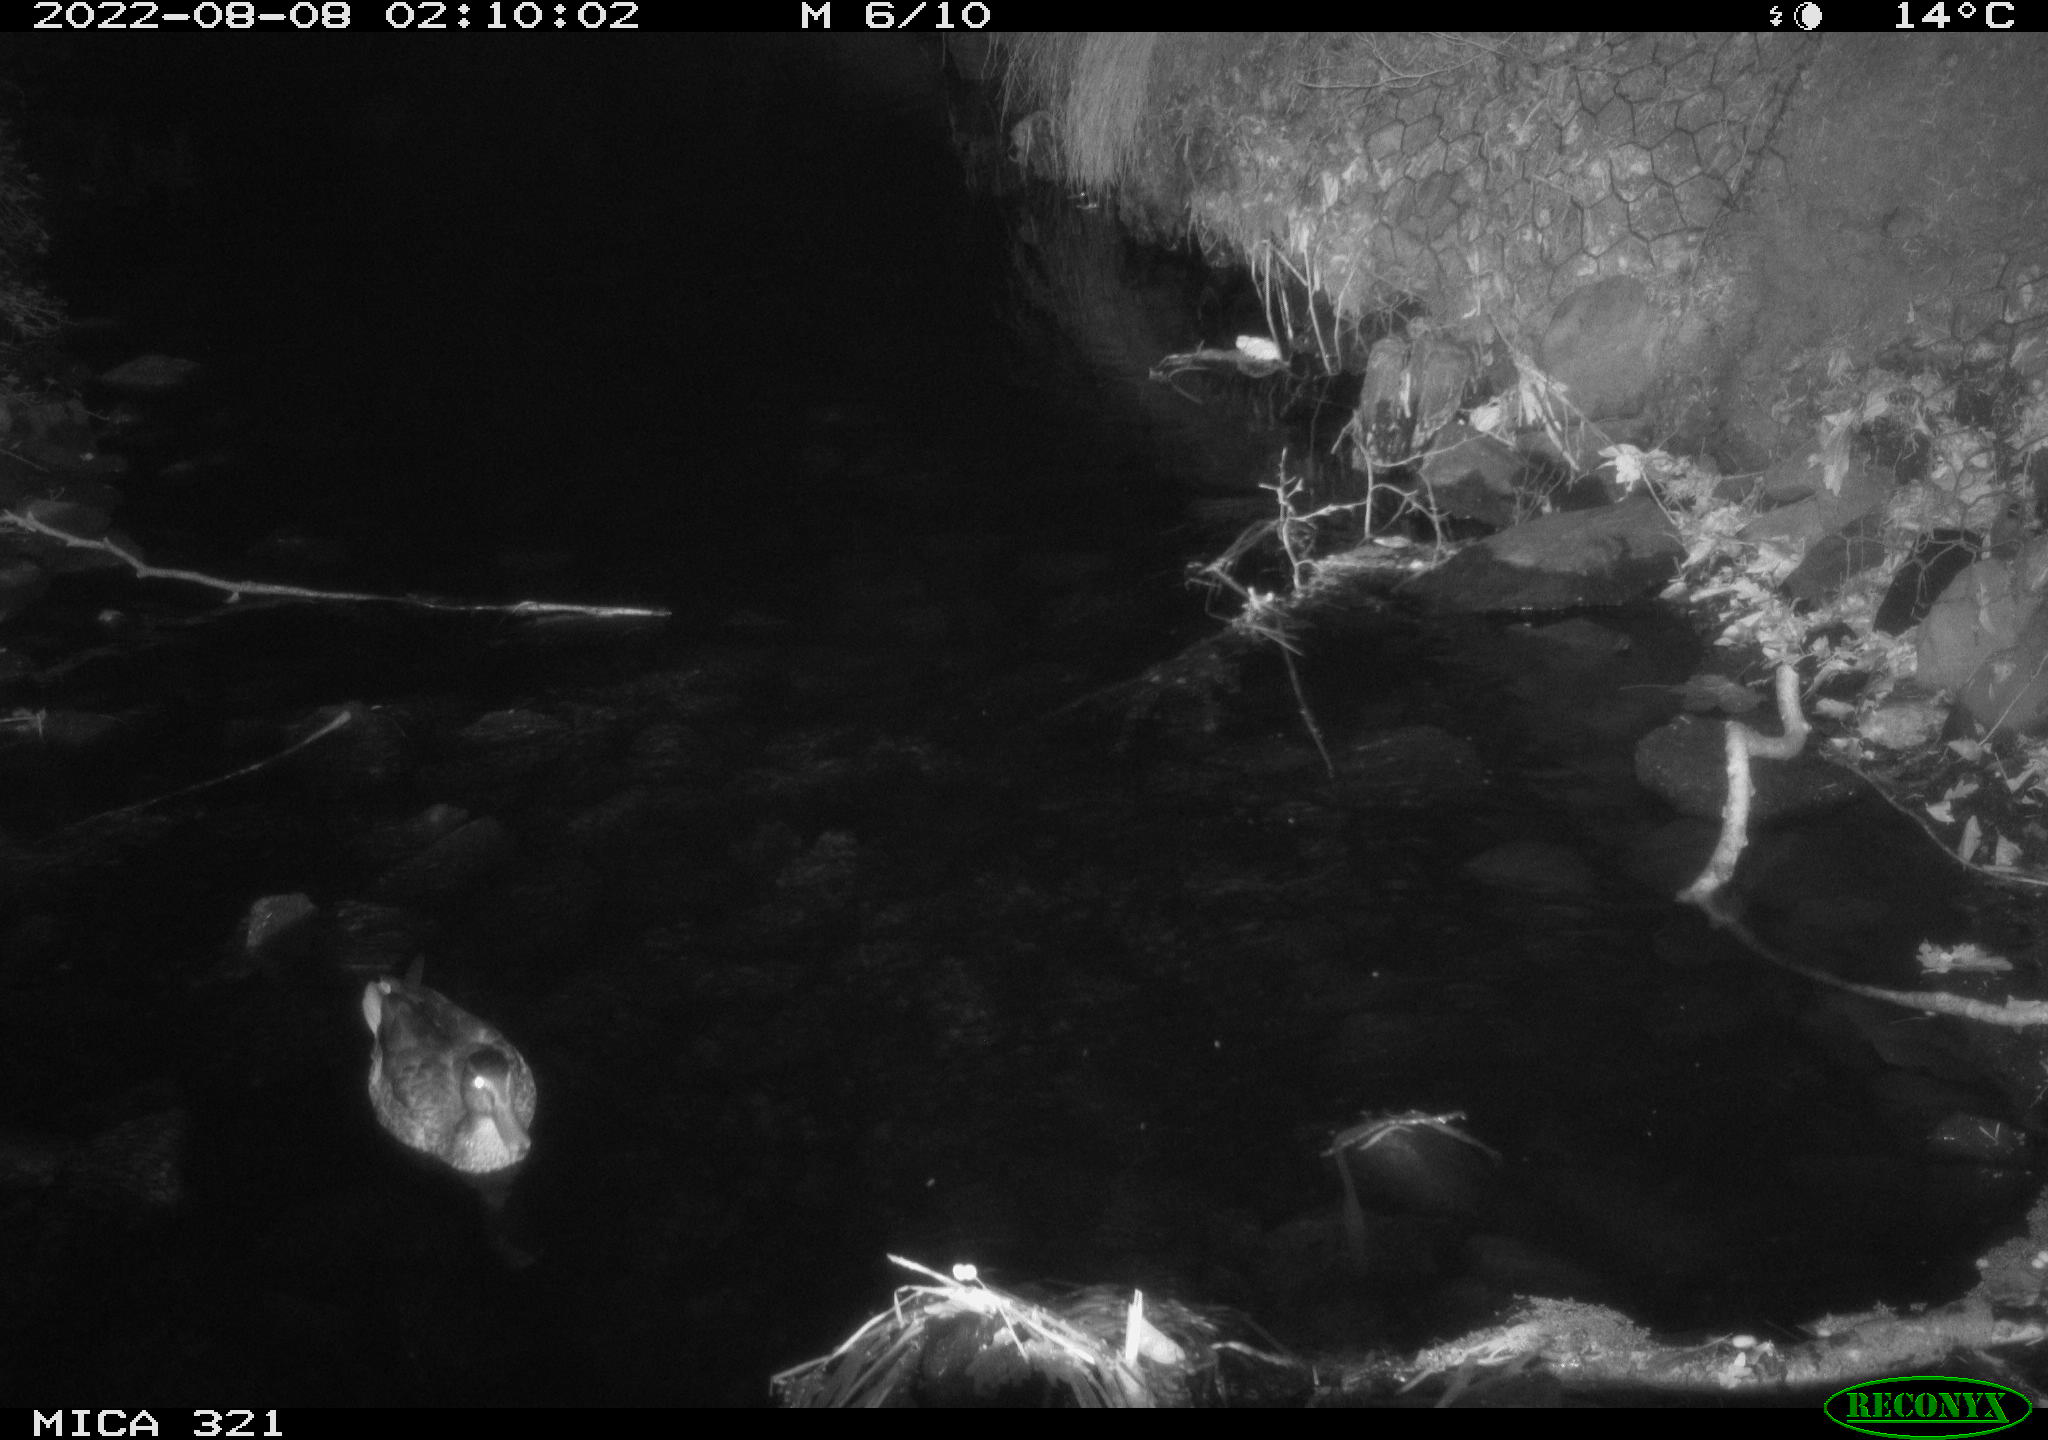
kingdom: Animalia
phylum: Chordata
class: Aves
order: Anseriformes
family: Anatidae
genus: Anas
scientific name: Anas platyrhynchos
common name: Mallard
